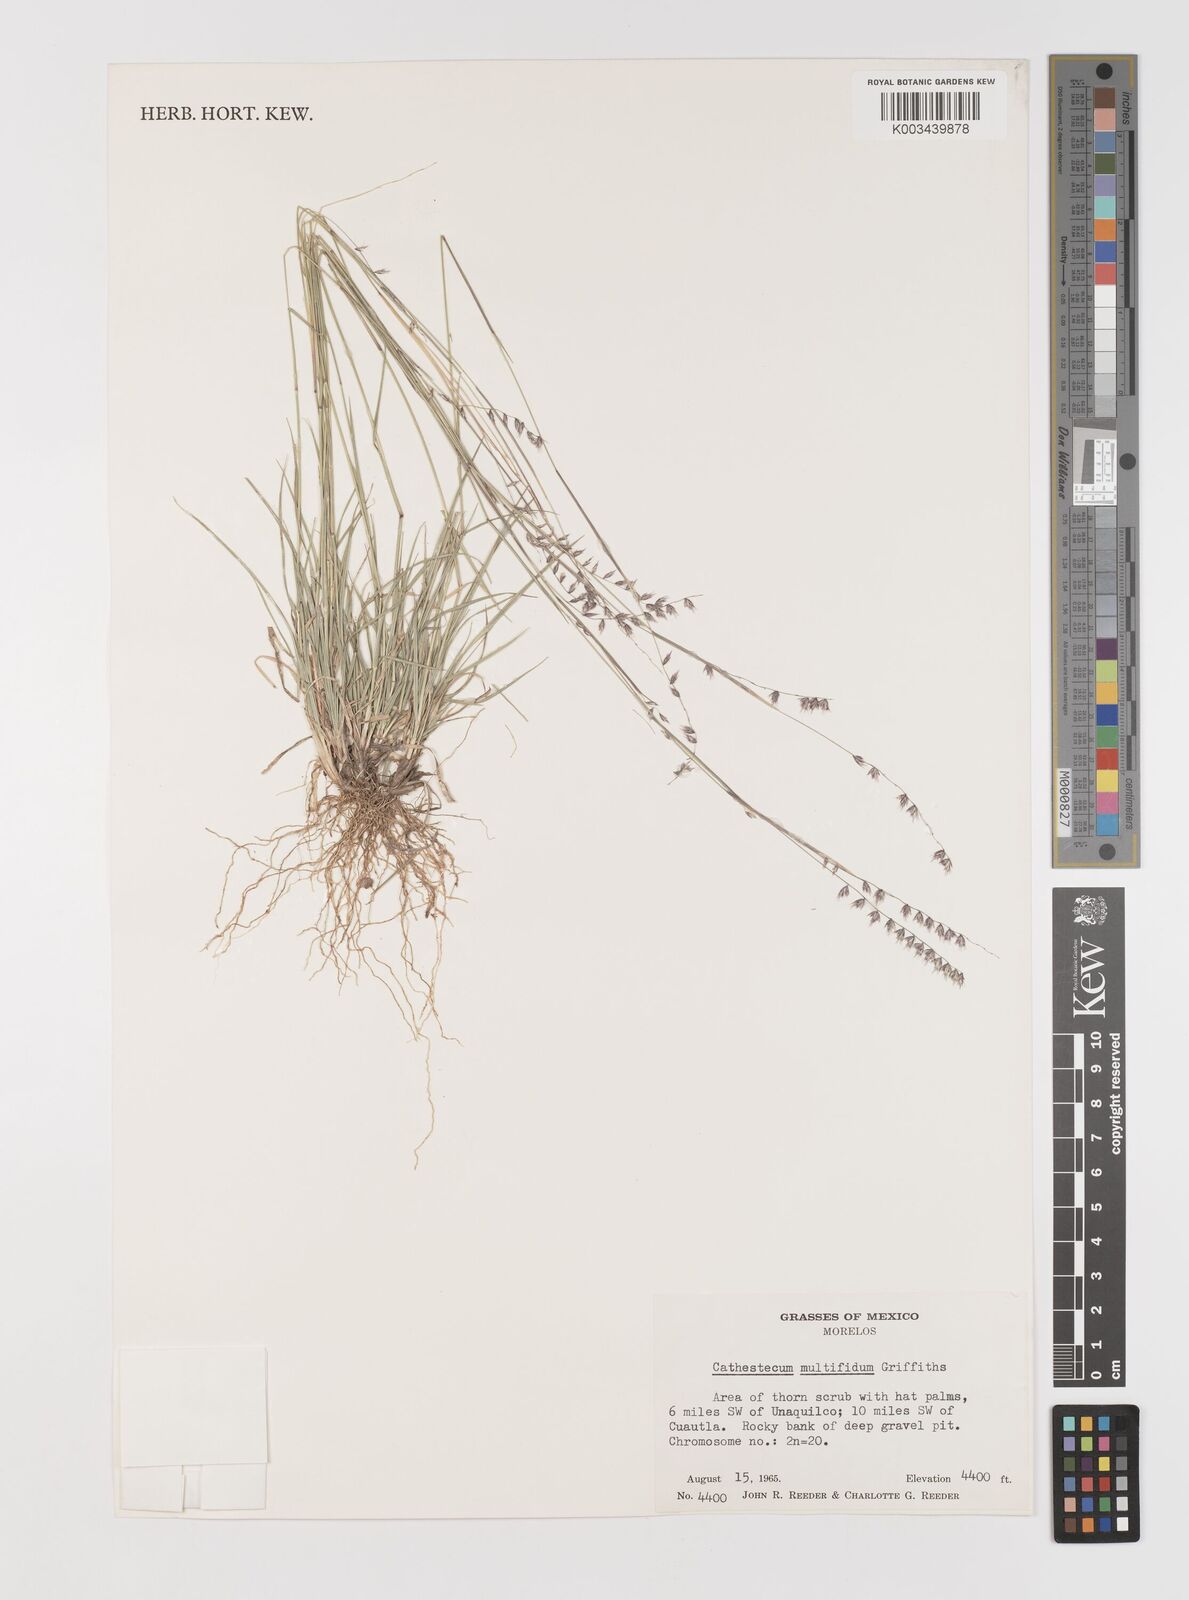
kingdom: Plantae
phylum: Tracheophyta
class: Liliopsida
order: Poales
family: Poaceae
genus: Bouteloua
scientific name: Bouteloua multifida
